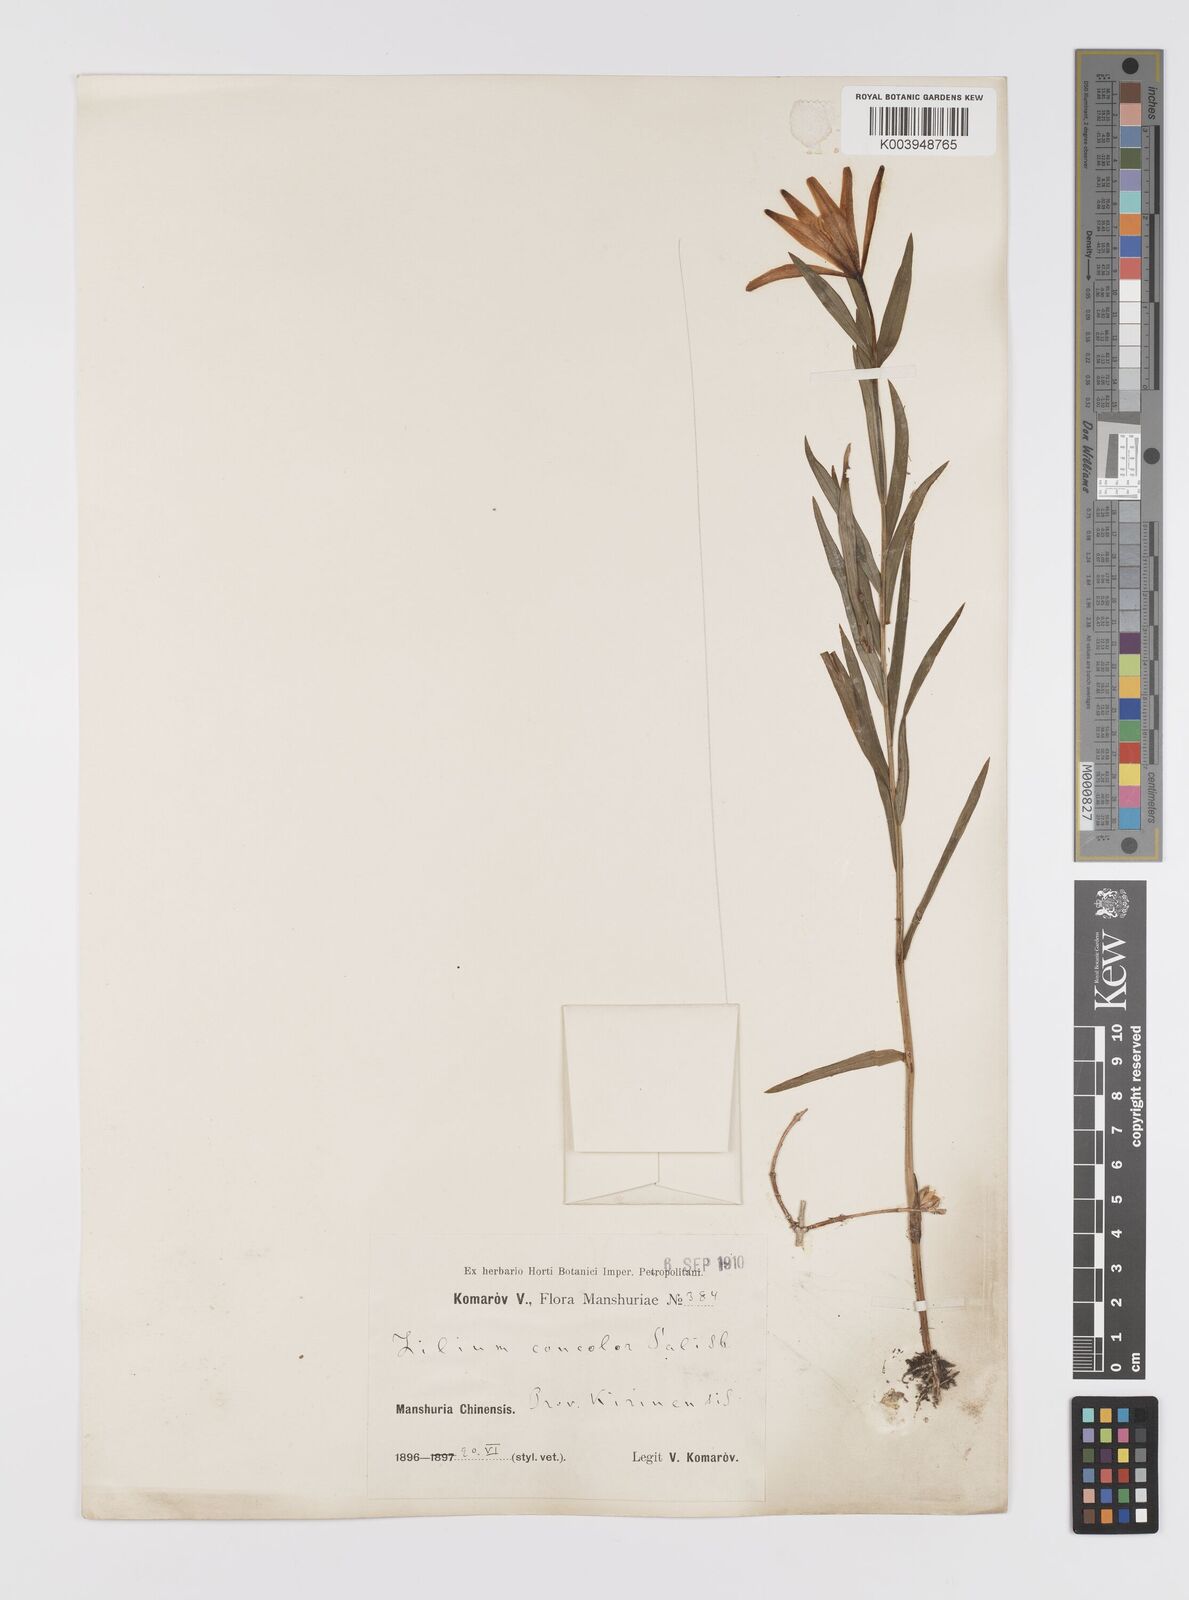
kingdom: Plantae
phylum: Tracheophyta
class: Liliopsida
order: Liliales
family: Liliaceae
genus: Lilium
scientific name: Lilium concolor
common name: Morning-star lily
